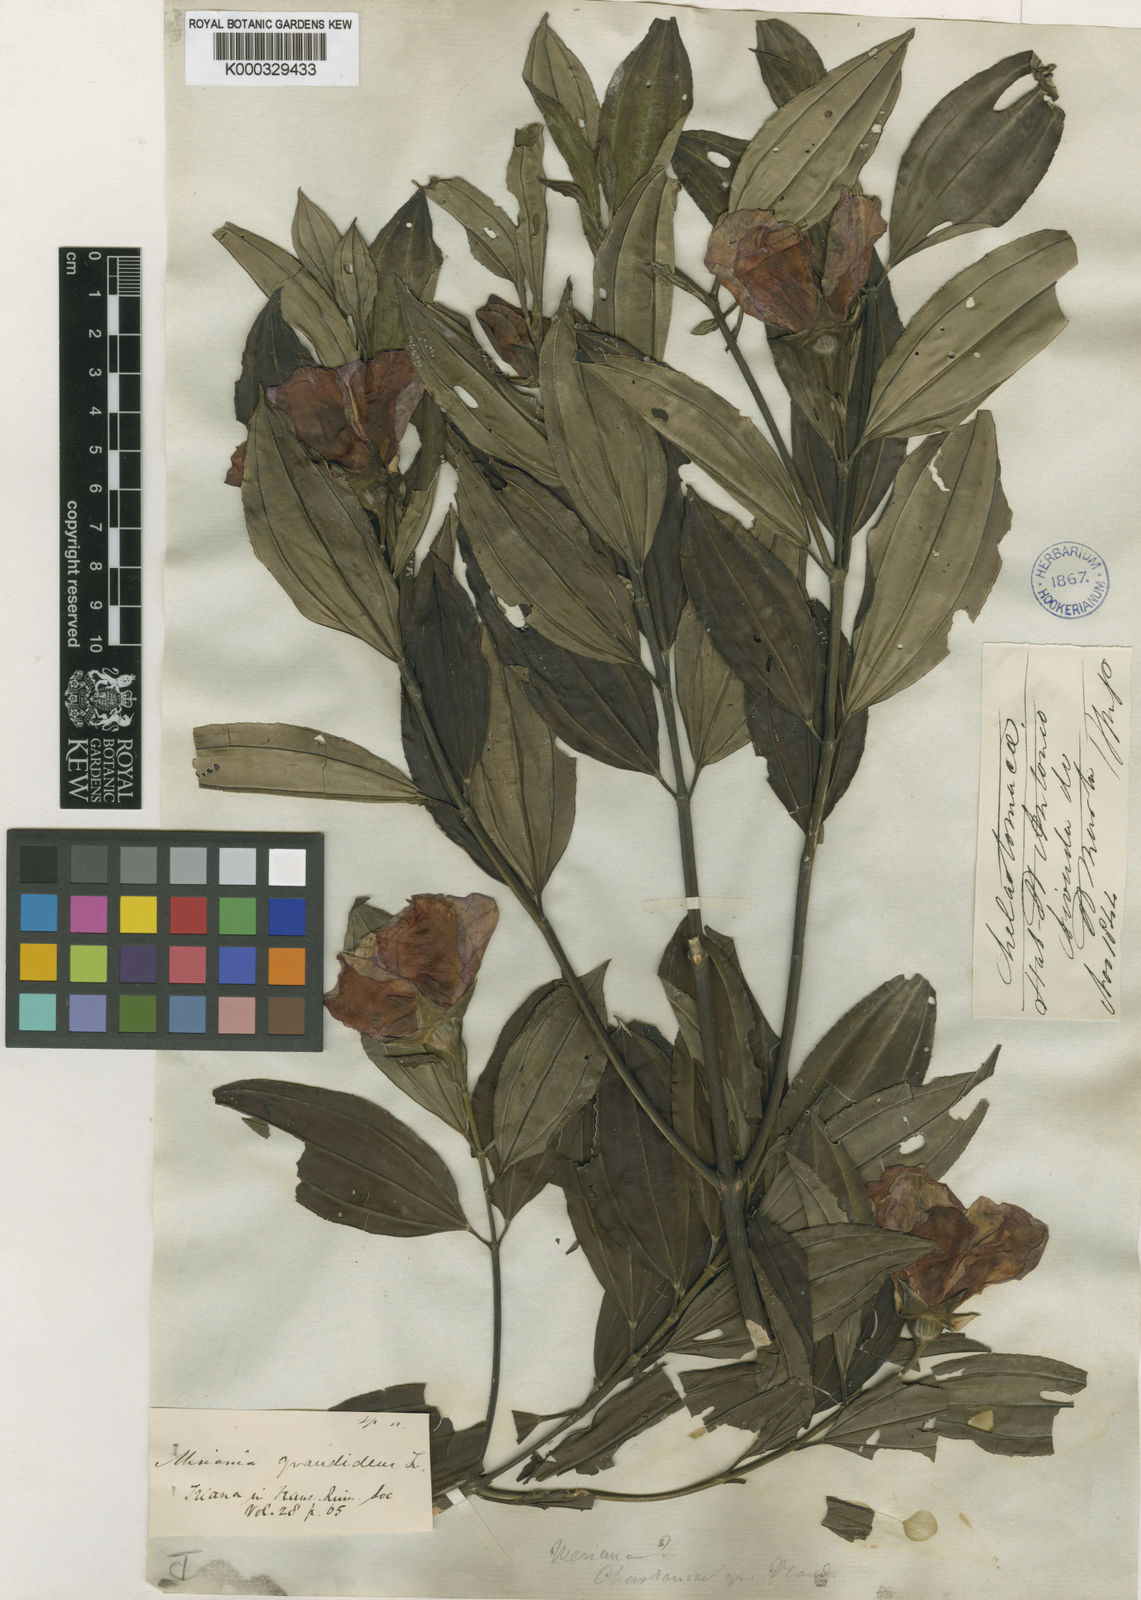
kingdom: Plantae
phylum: Tracheophyta
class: Magnoliopsida
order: Myrtales
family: Melastomataceae
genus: Meriania
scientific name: Meriania grandidens
